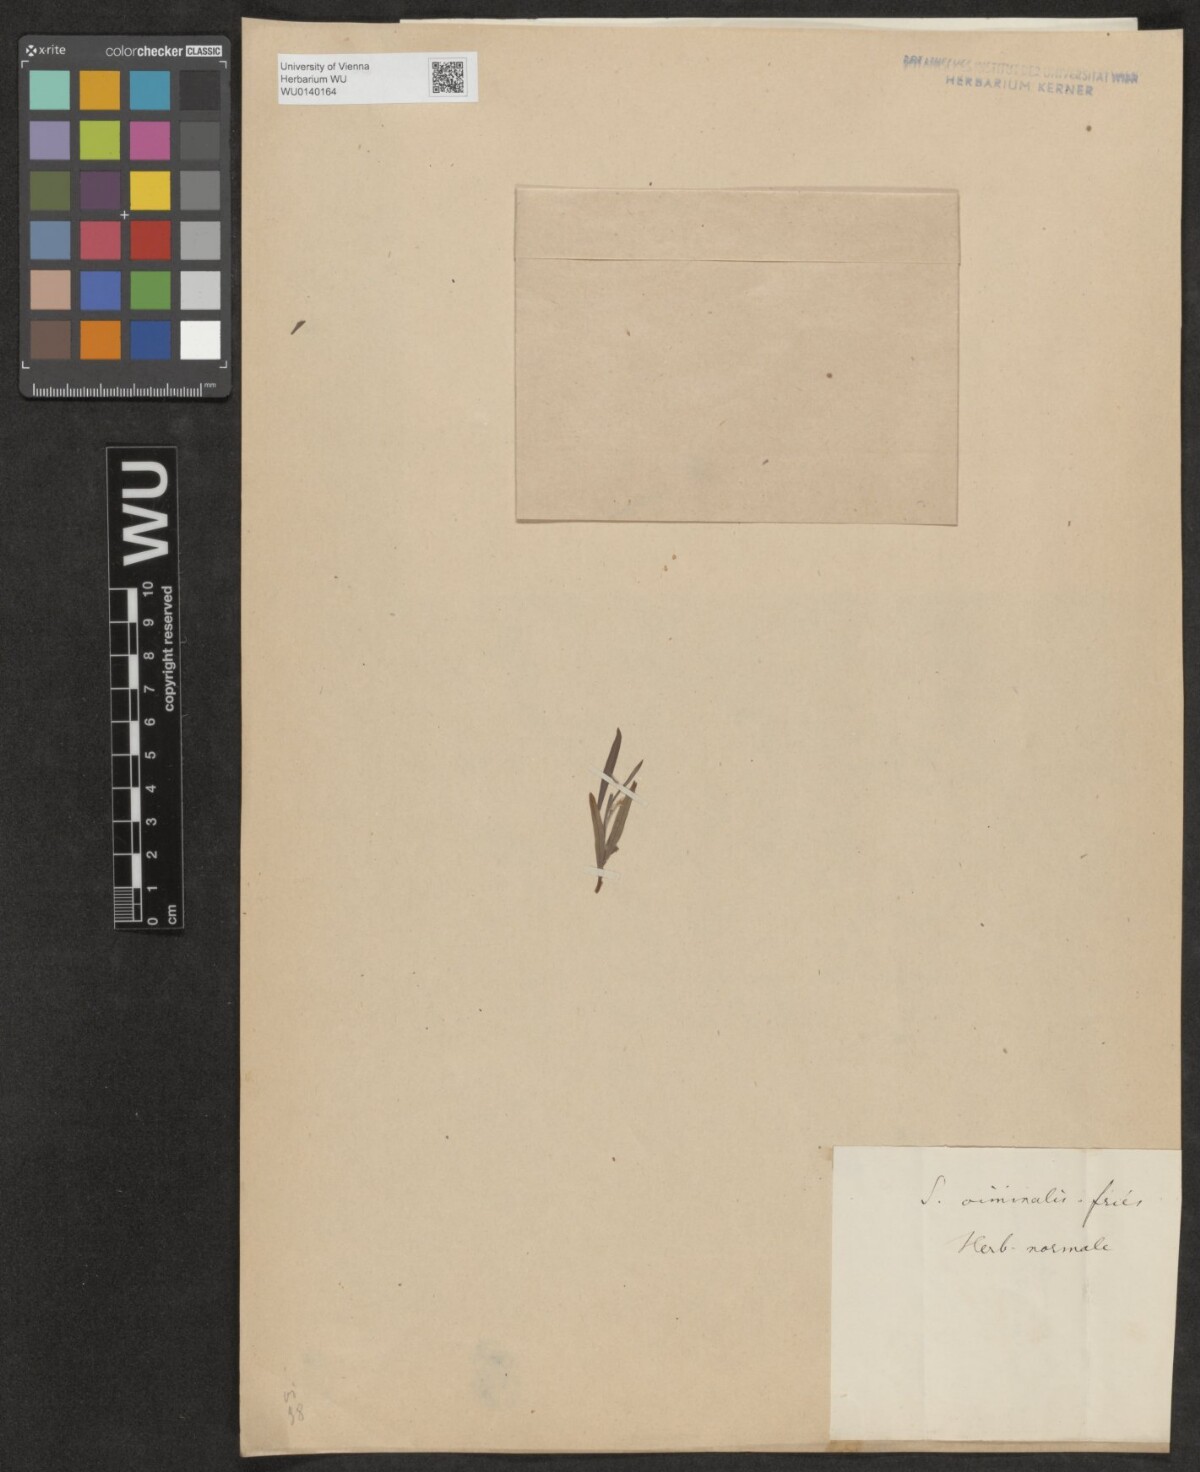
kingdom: Plantae
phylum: Tracheophyta
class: Magnoliopsida
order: Malpighiales
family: Salicaceae
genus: Salix
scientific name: Salix viminalis
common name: Osier
